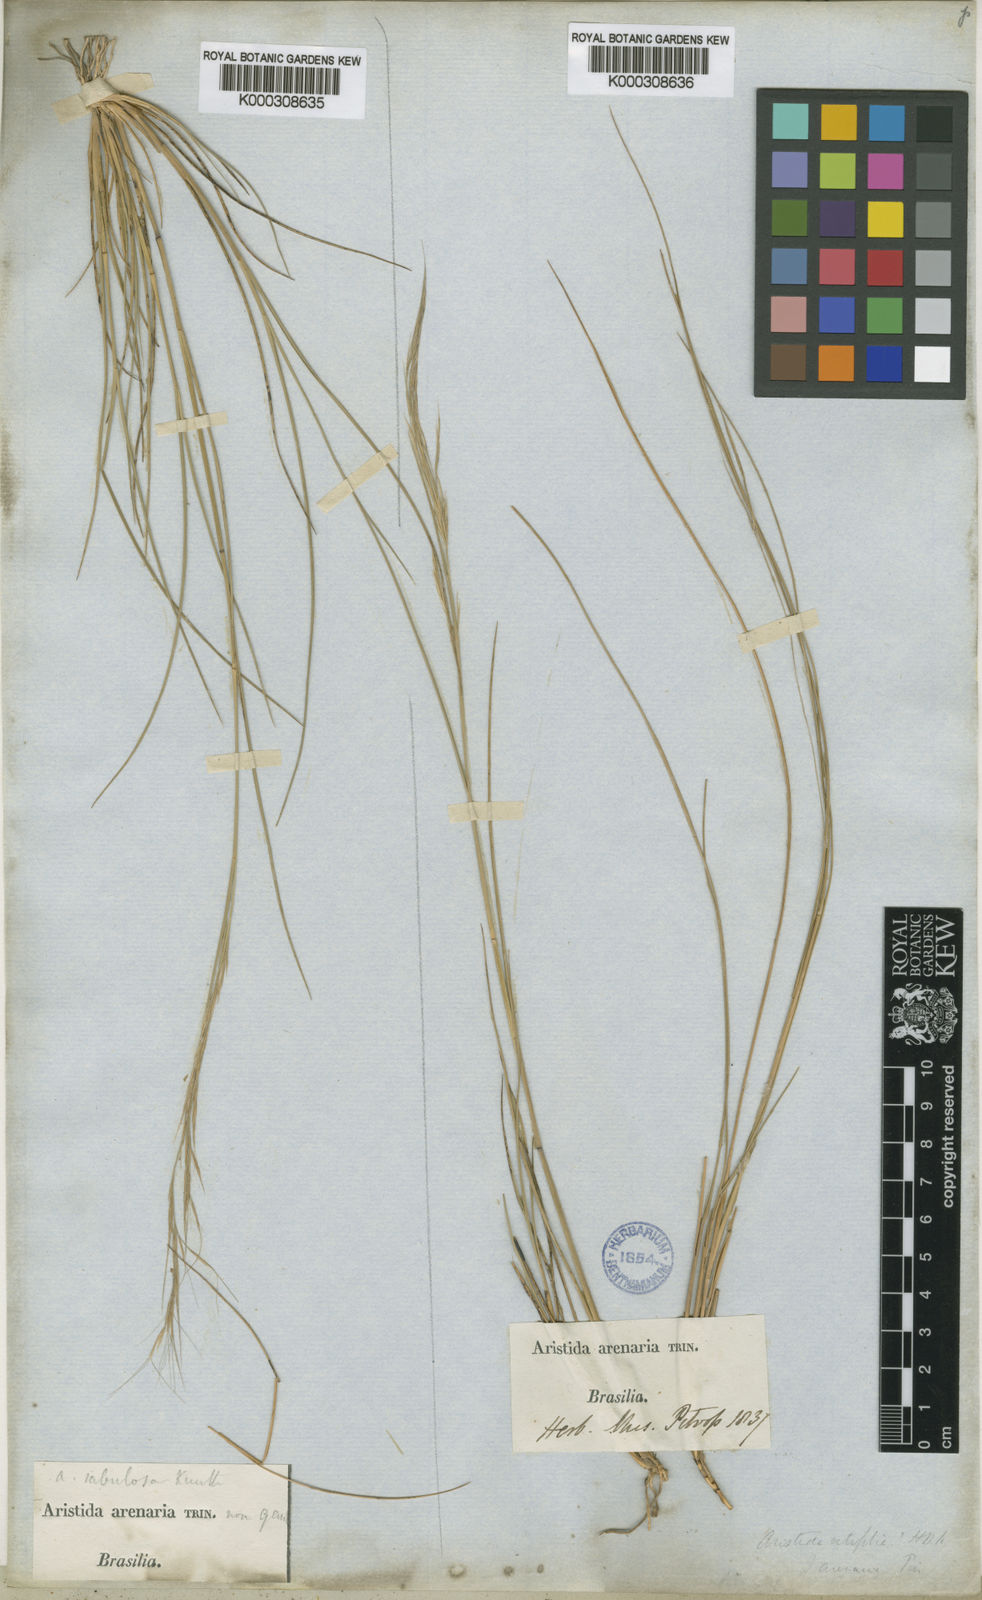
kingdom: Plantae
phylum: Tracheophyta
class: Liliopsida
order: Poales
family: Poaceae
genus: Aristida
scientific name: Aristida setifolia
